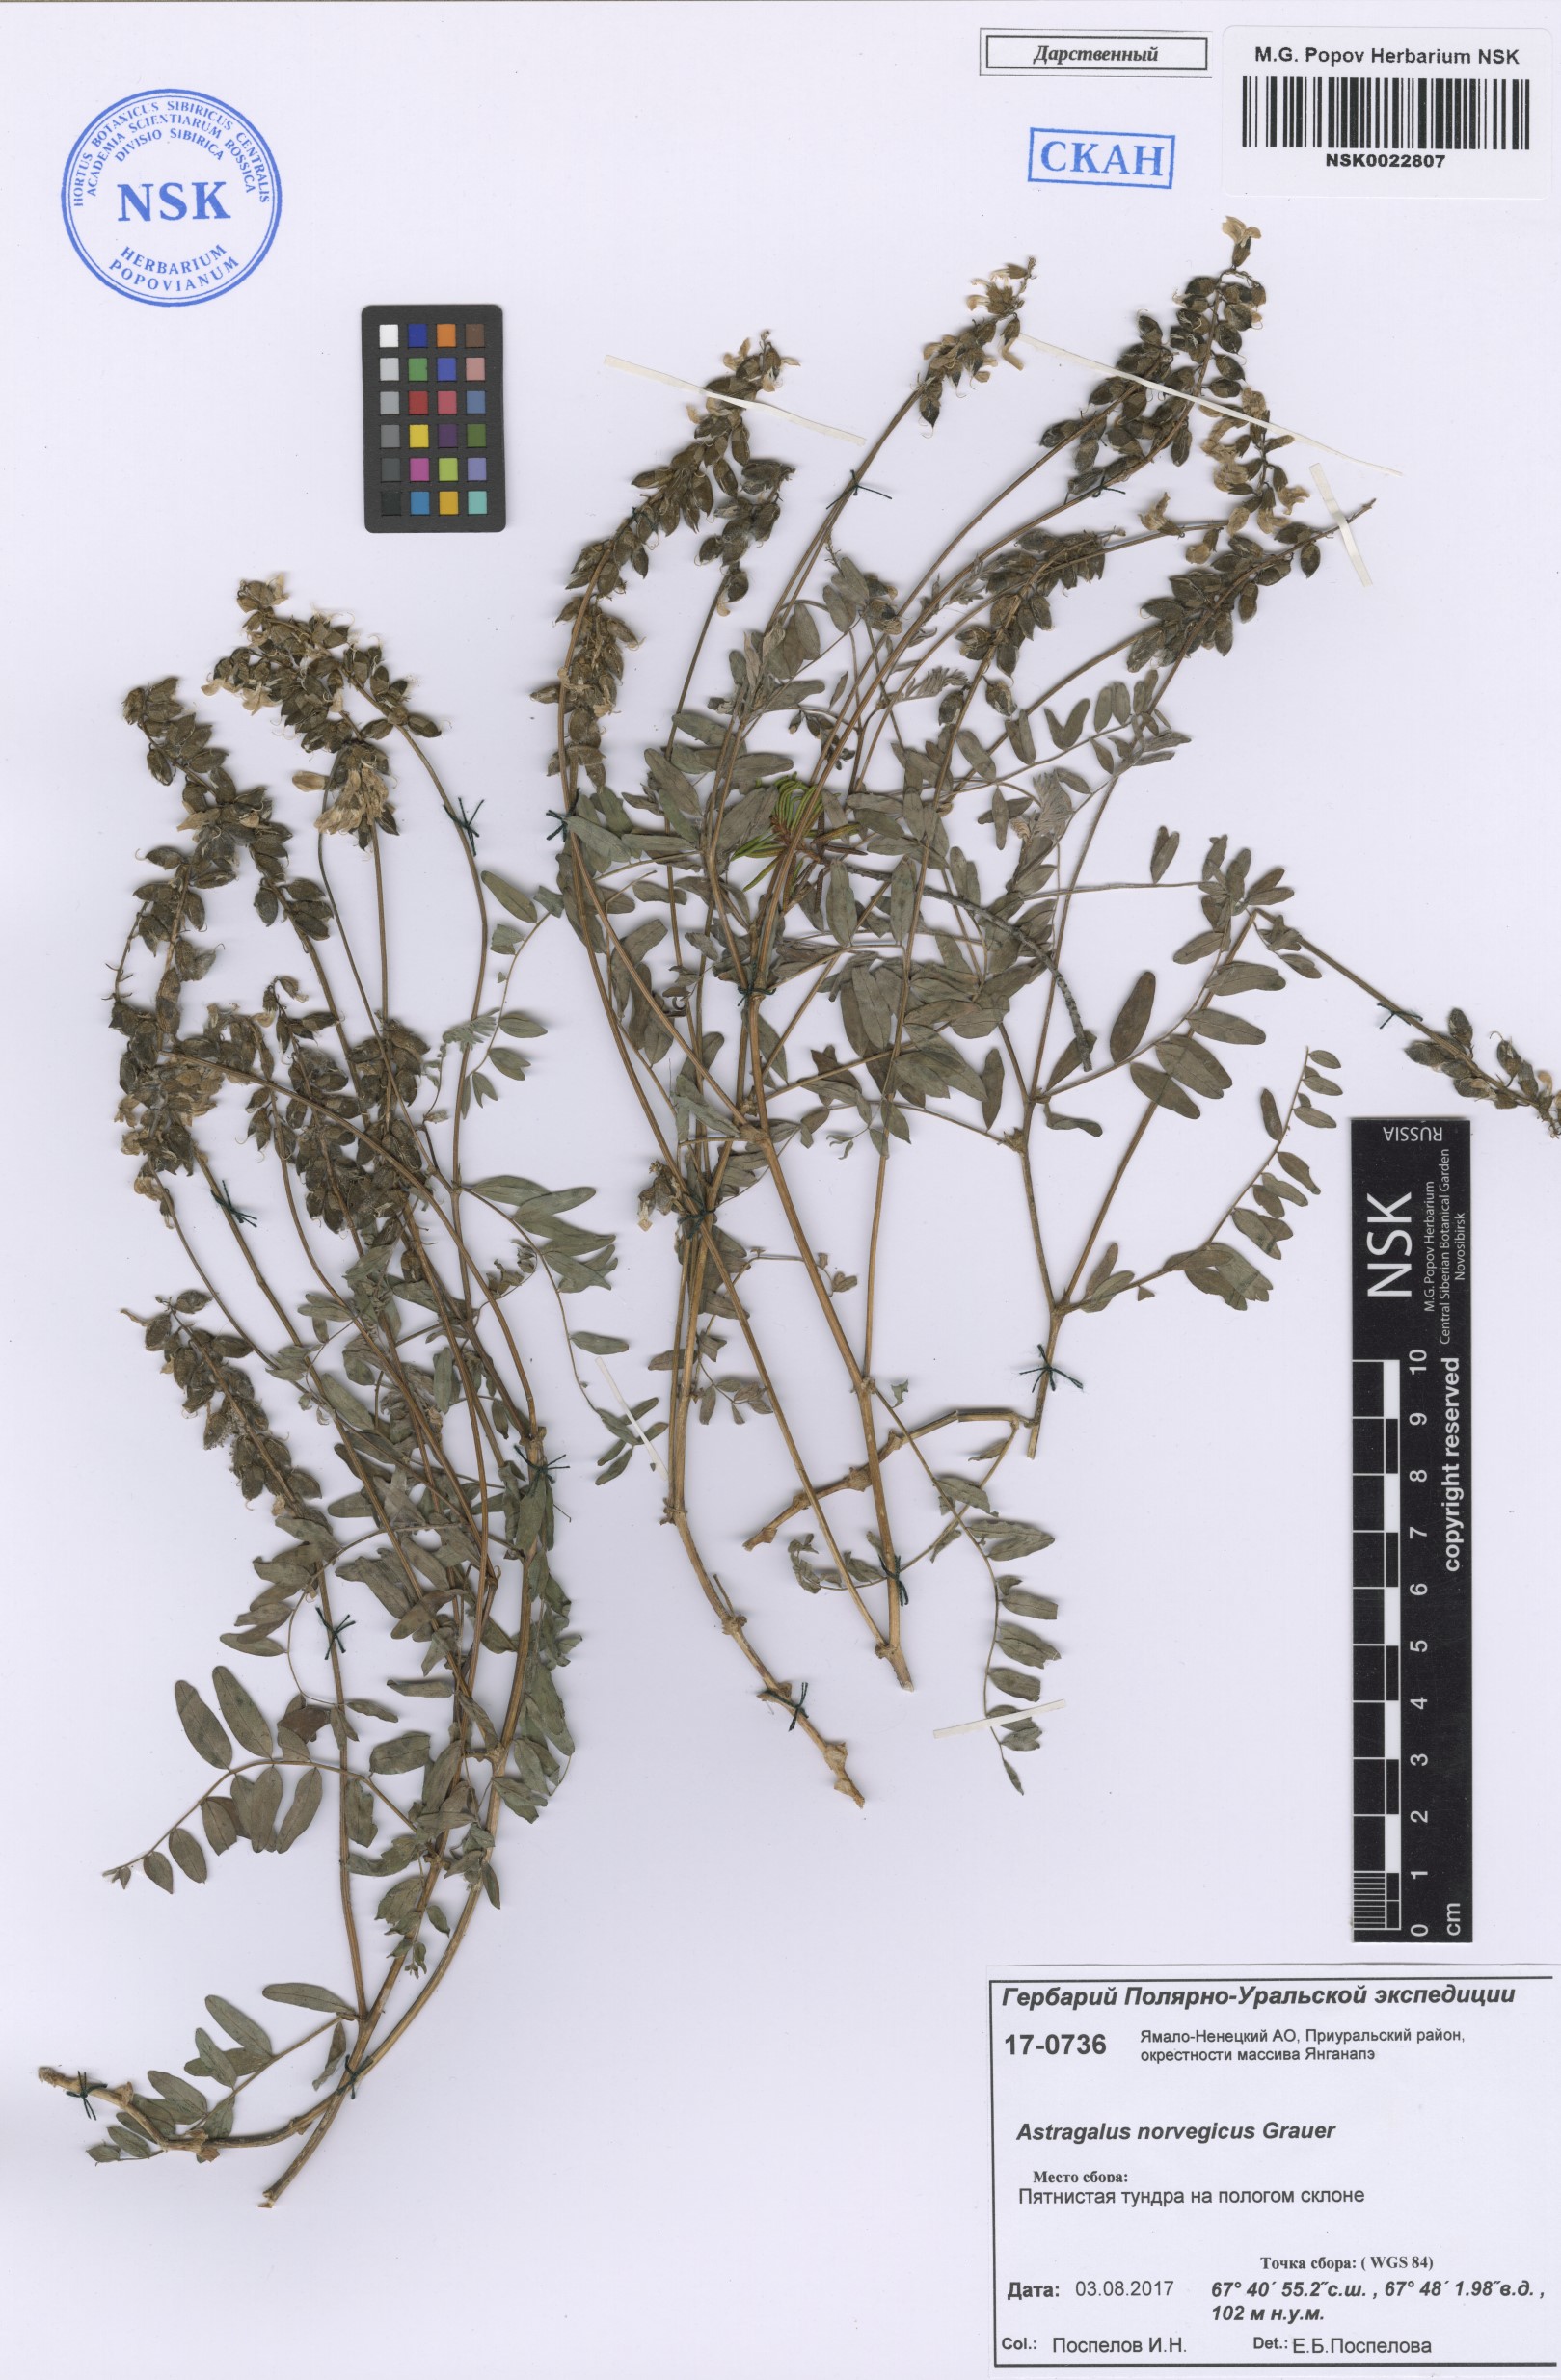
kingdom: Plantae
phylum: Tracheophyta
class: Magnoliopsida
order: Fabales
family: Fabaceae
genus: Astragalus
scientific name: Astragalus norvegicus
